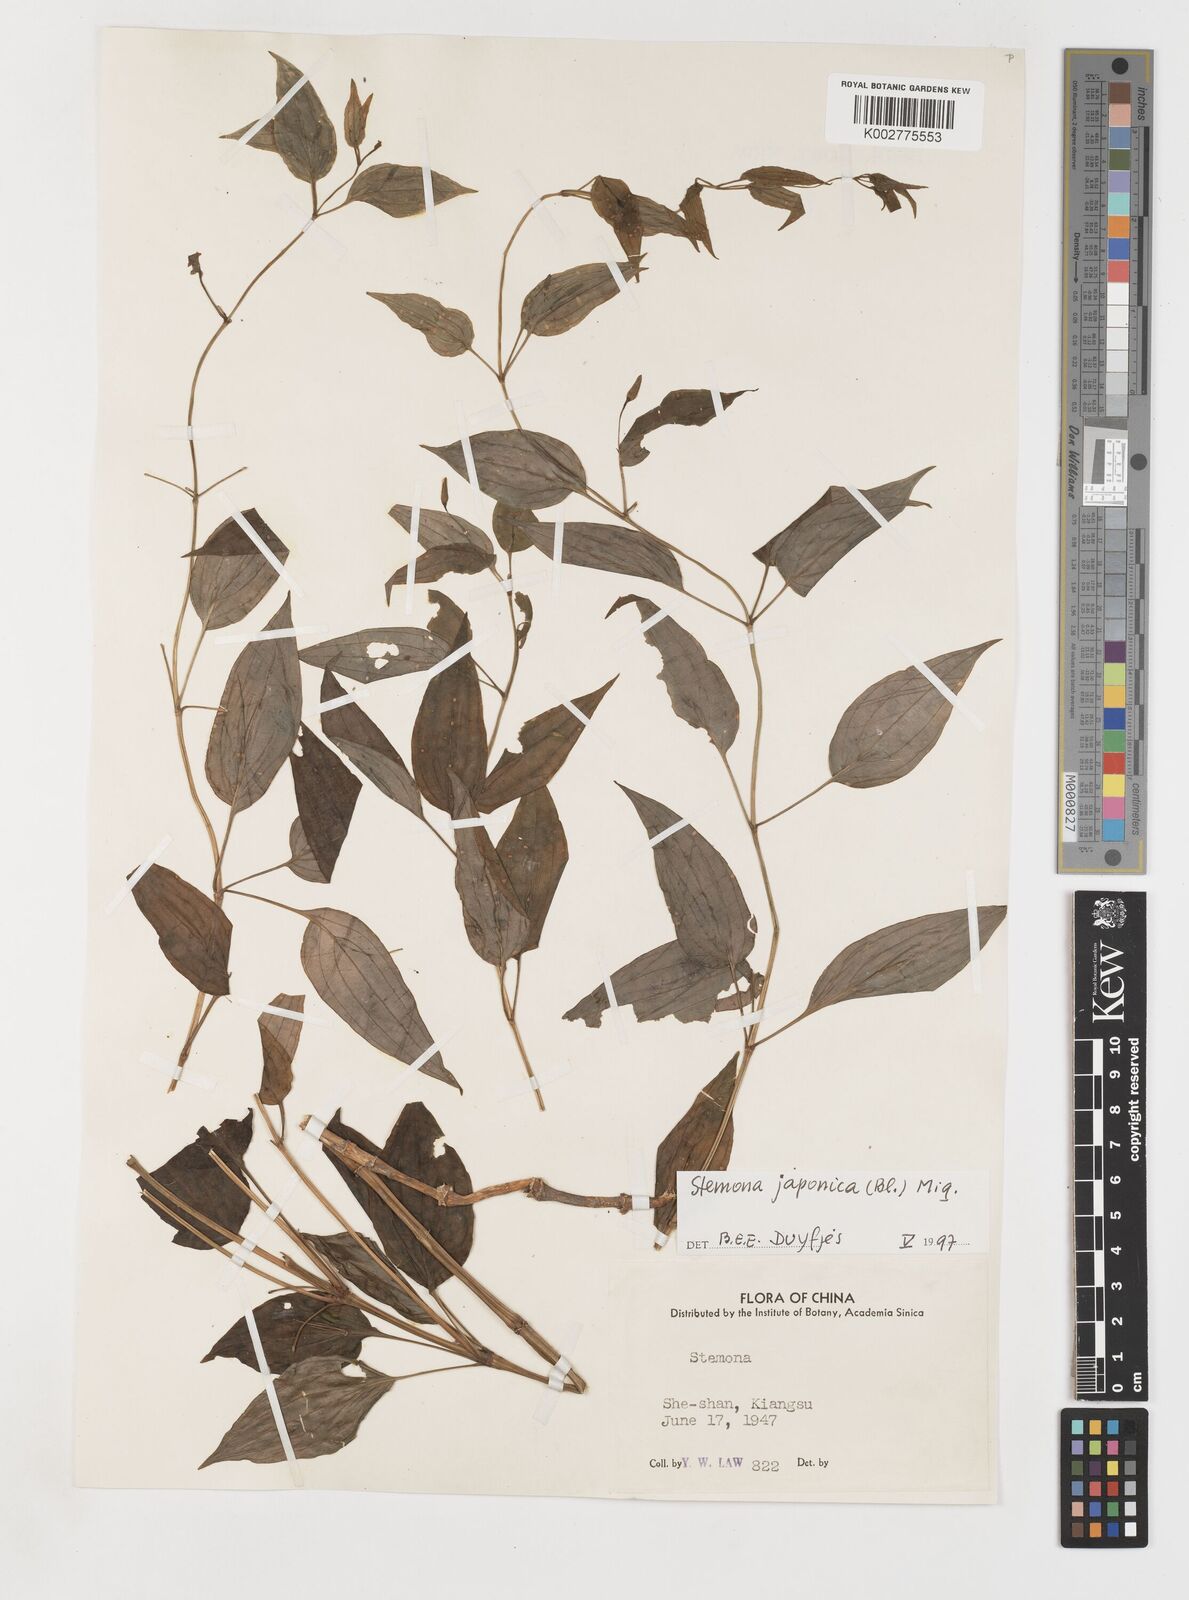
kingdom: Plantae
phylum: Tracheophyta
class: Liliopsida
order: Pandanales
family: Stemonaceae
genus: Stemona
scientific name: Stemona japonica
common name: Stemona
